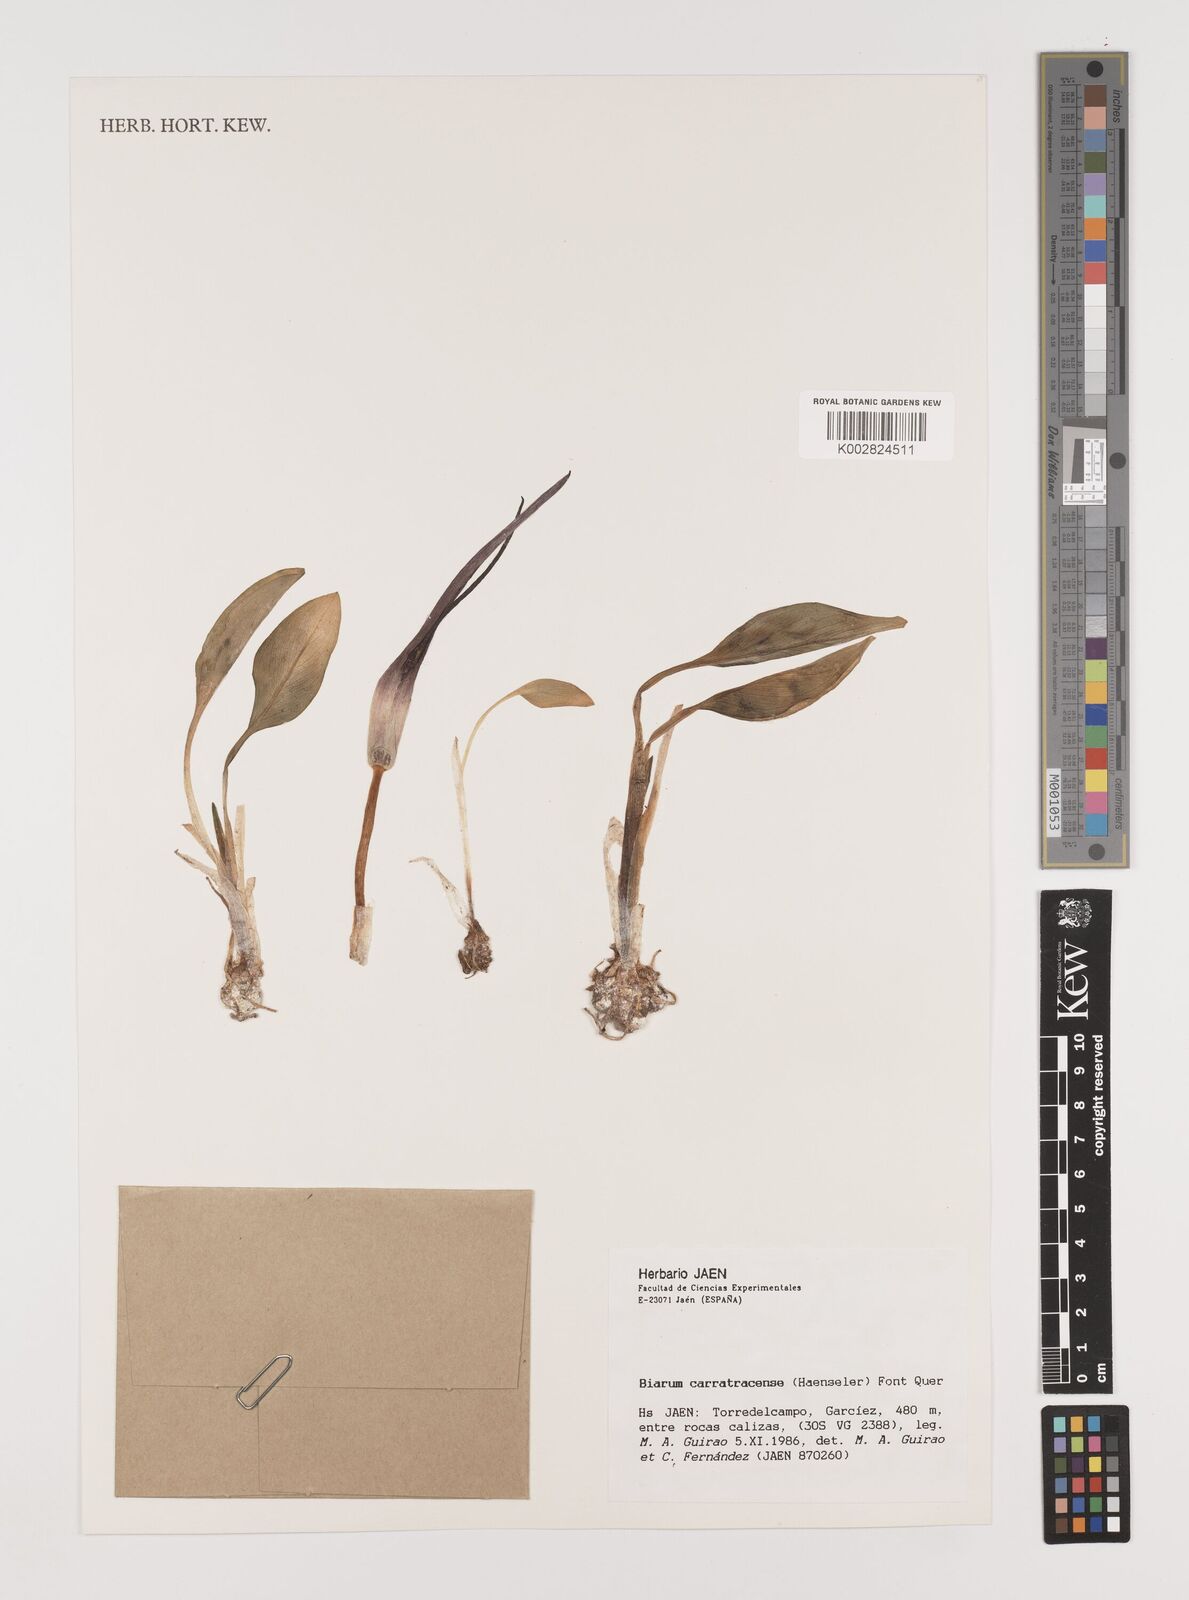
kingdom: Plantae
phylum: Tracheophyta
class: Liliopsida
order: Alismatales
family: Araceae
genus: Biarum
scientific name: Biarum carratracense
